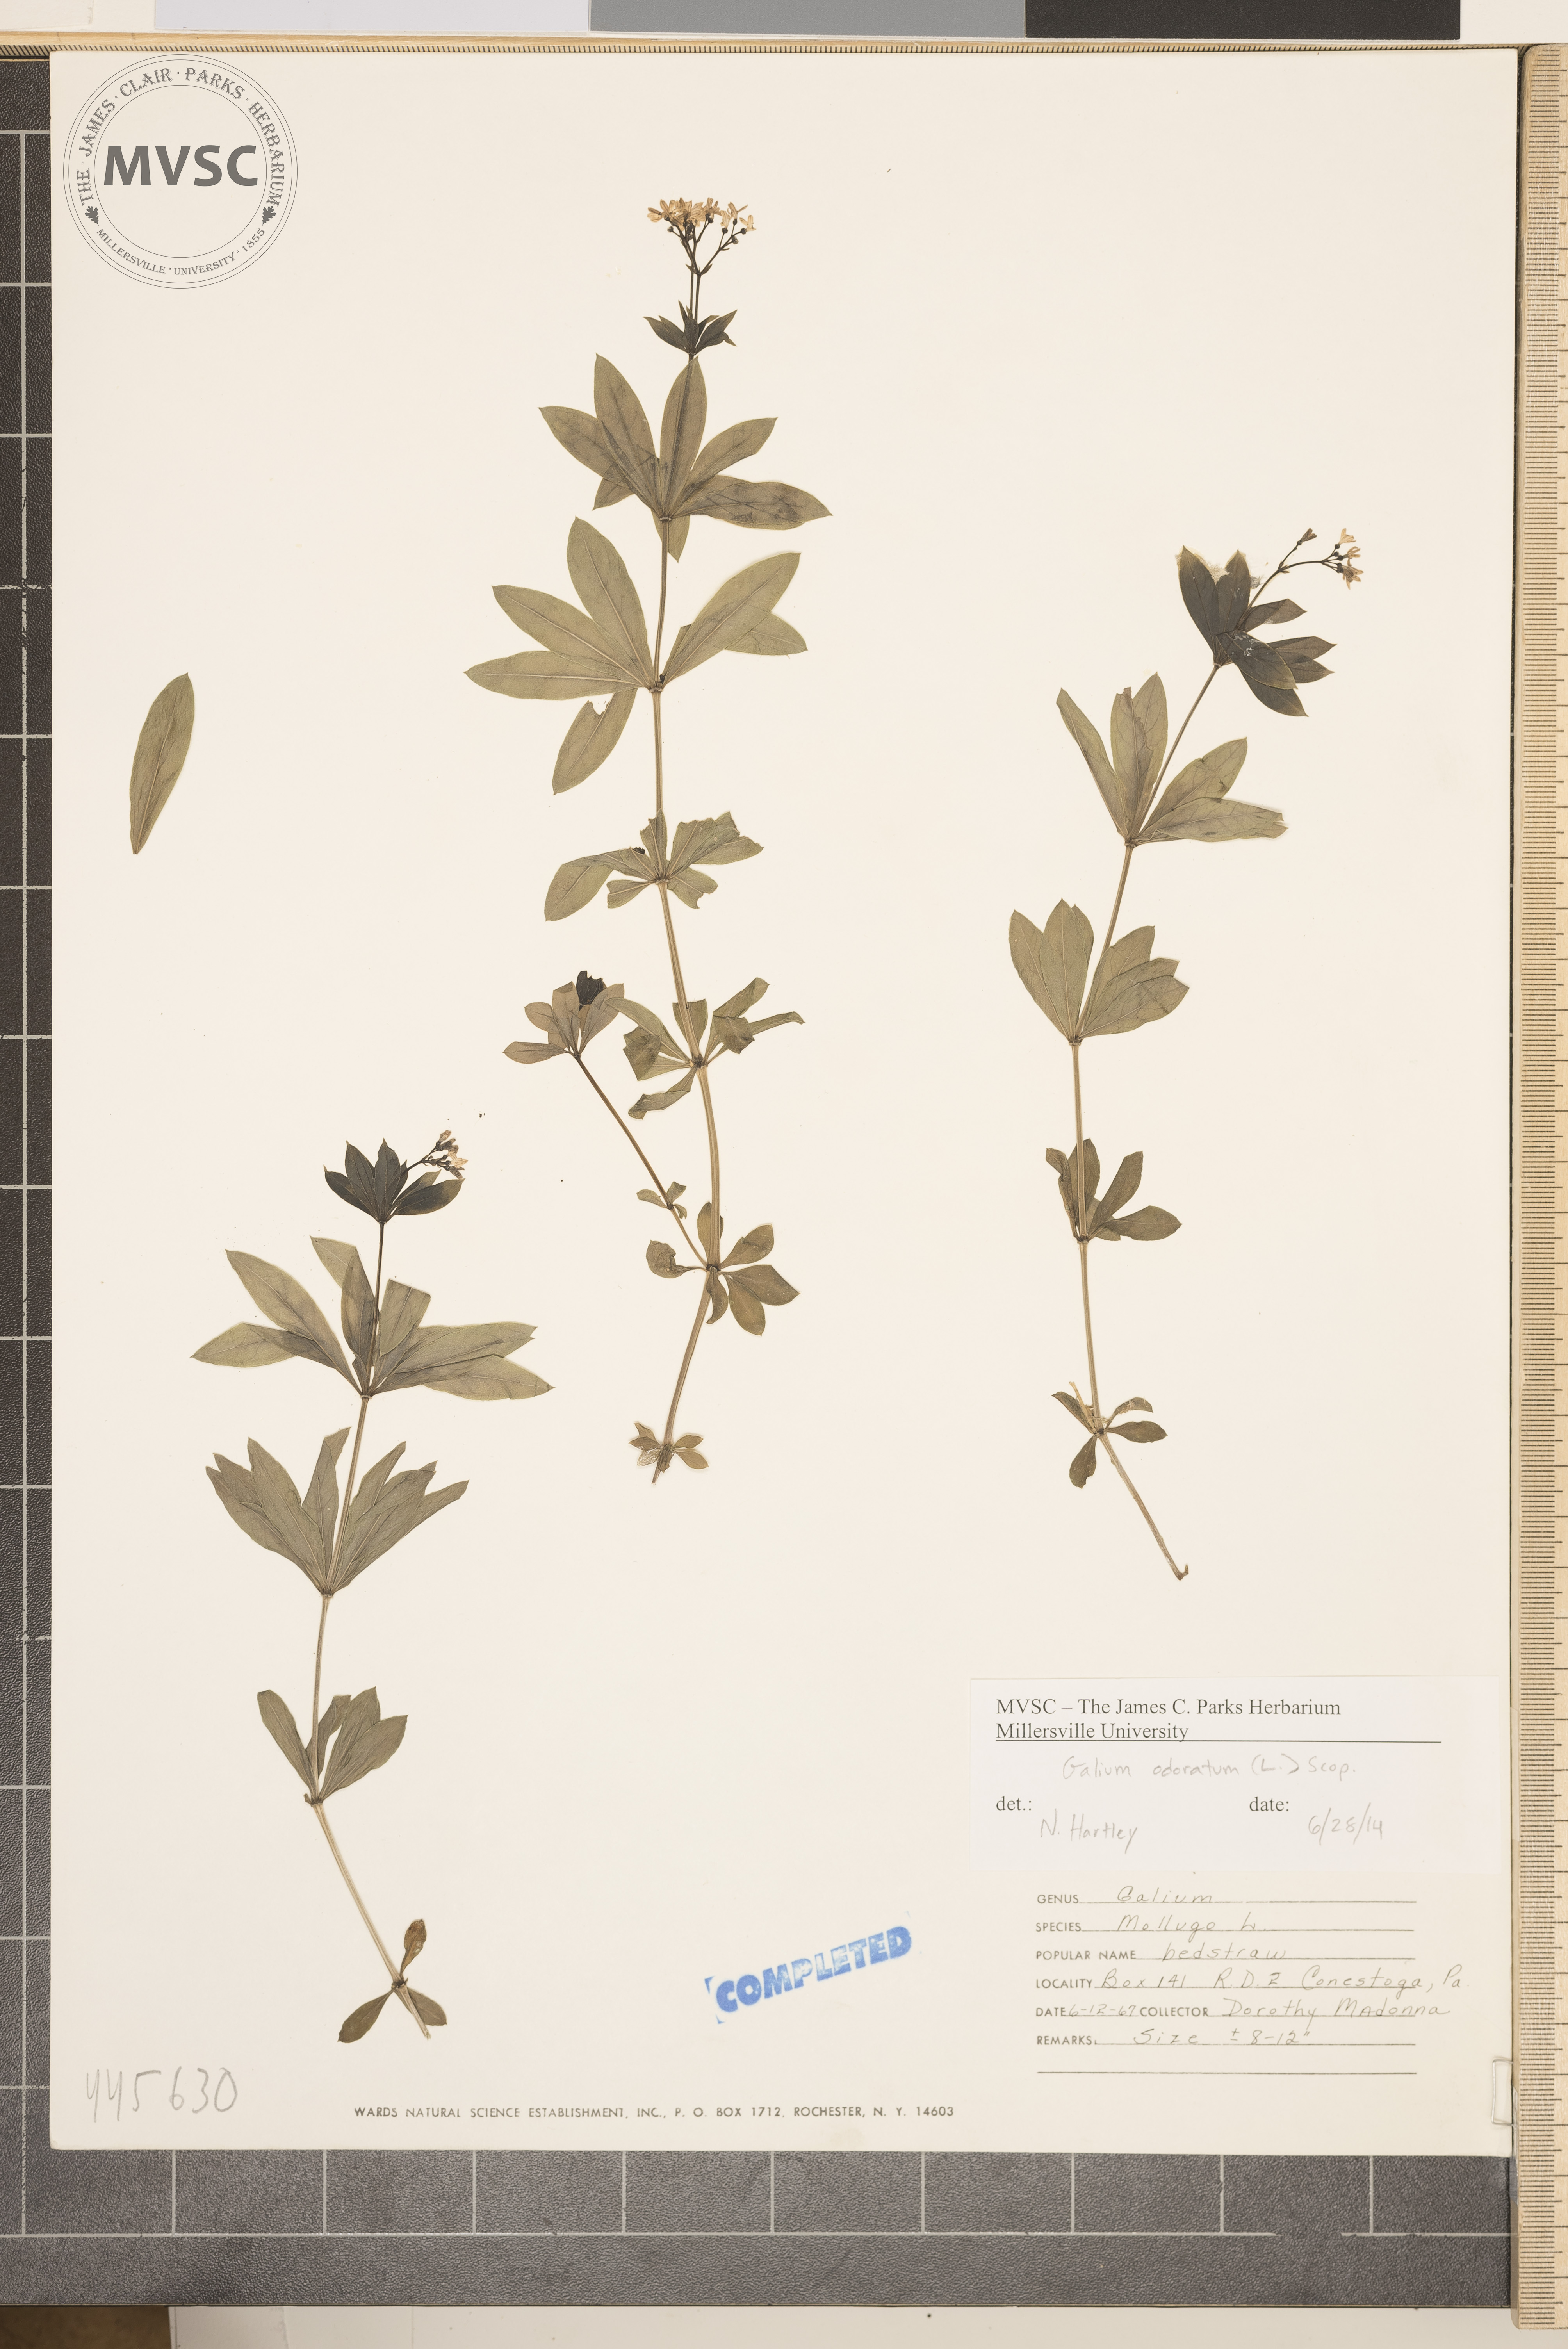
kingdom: Plantae
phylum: Tracheophyta
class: Magnoliopsida
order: Gentianales
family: Rubiaceae
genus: Galium
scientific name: Galium odoratum
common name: Sweet woodruff
